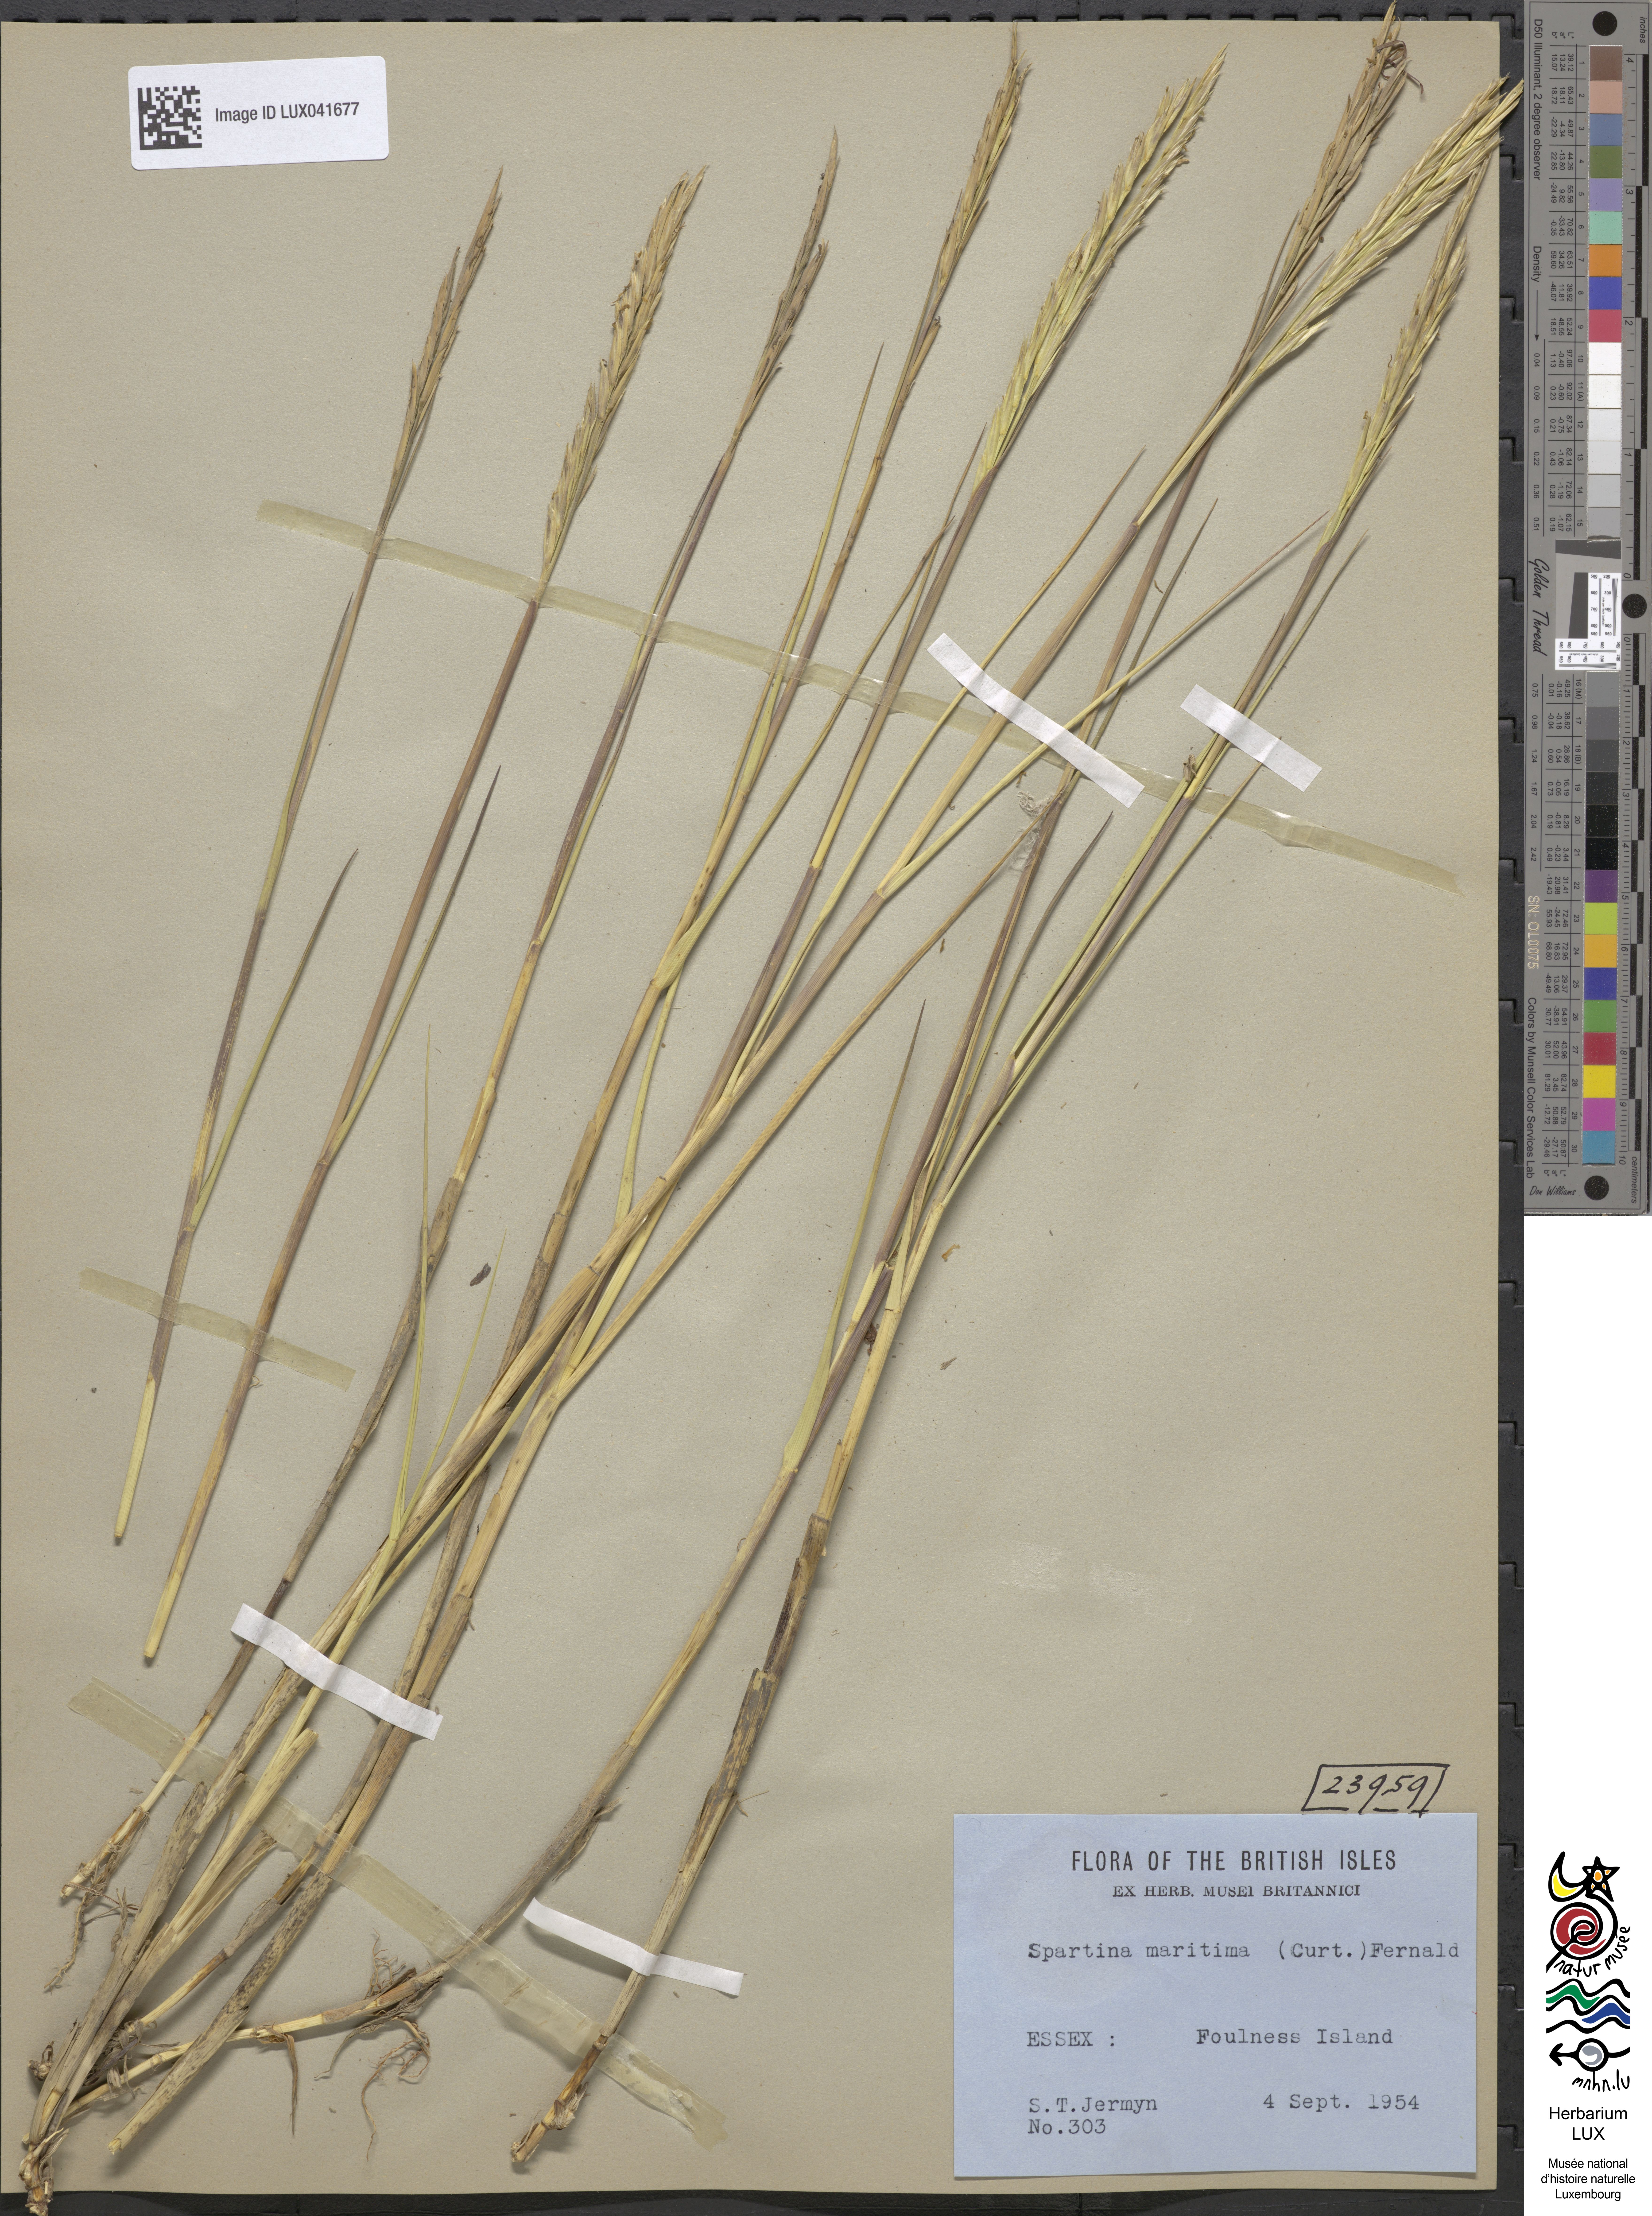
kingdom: Plantae
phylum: Tracheophyta
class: Liliopsida
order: Poales
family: Poaceae
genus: Sporobolus
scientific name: Sporobolus maritimus
